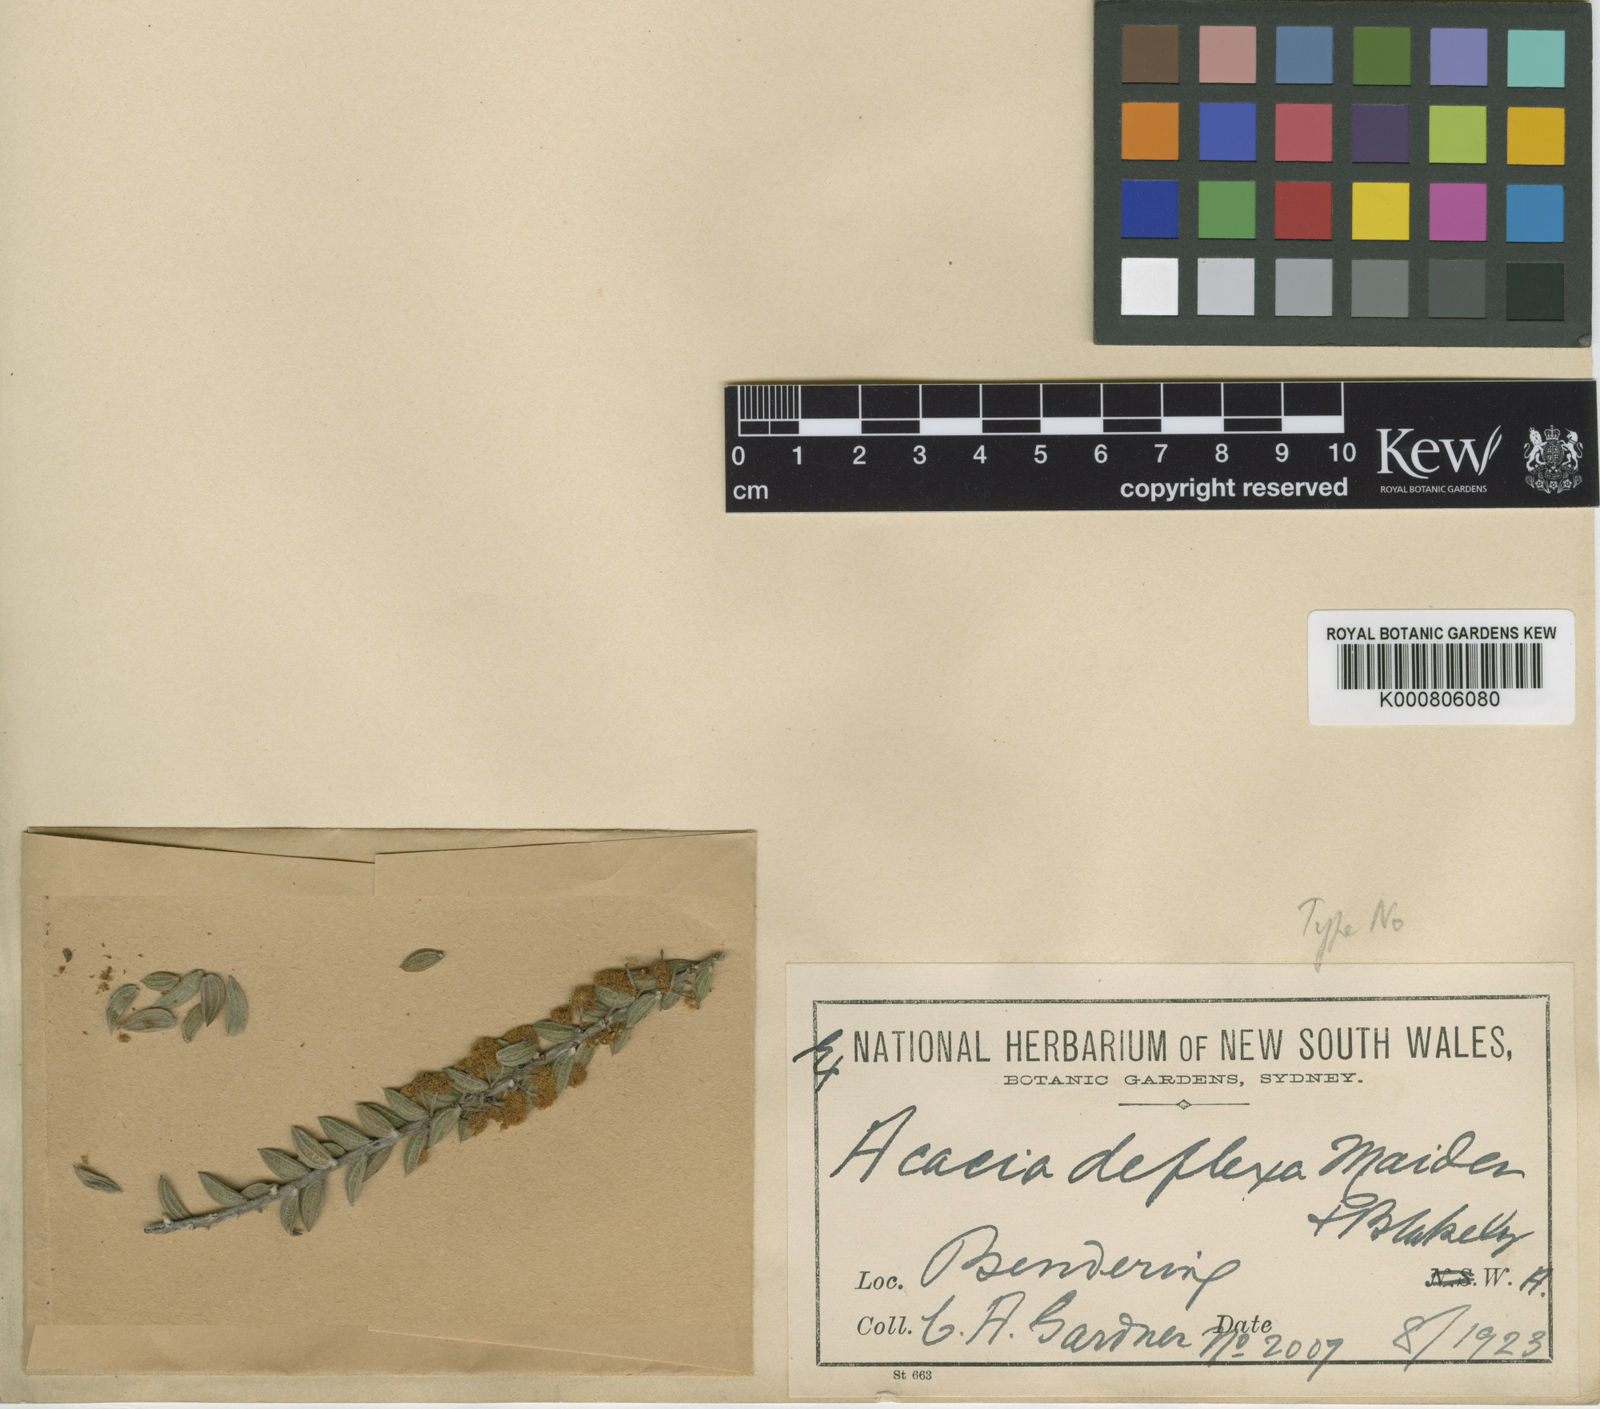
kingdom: Plantae
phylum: Tracheophyta
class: Magnoliopsida
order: Fabales
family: Fabaceae
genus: Acacia
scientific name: Acacia deflexa
